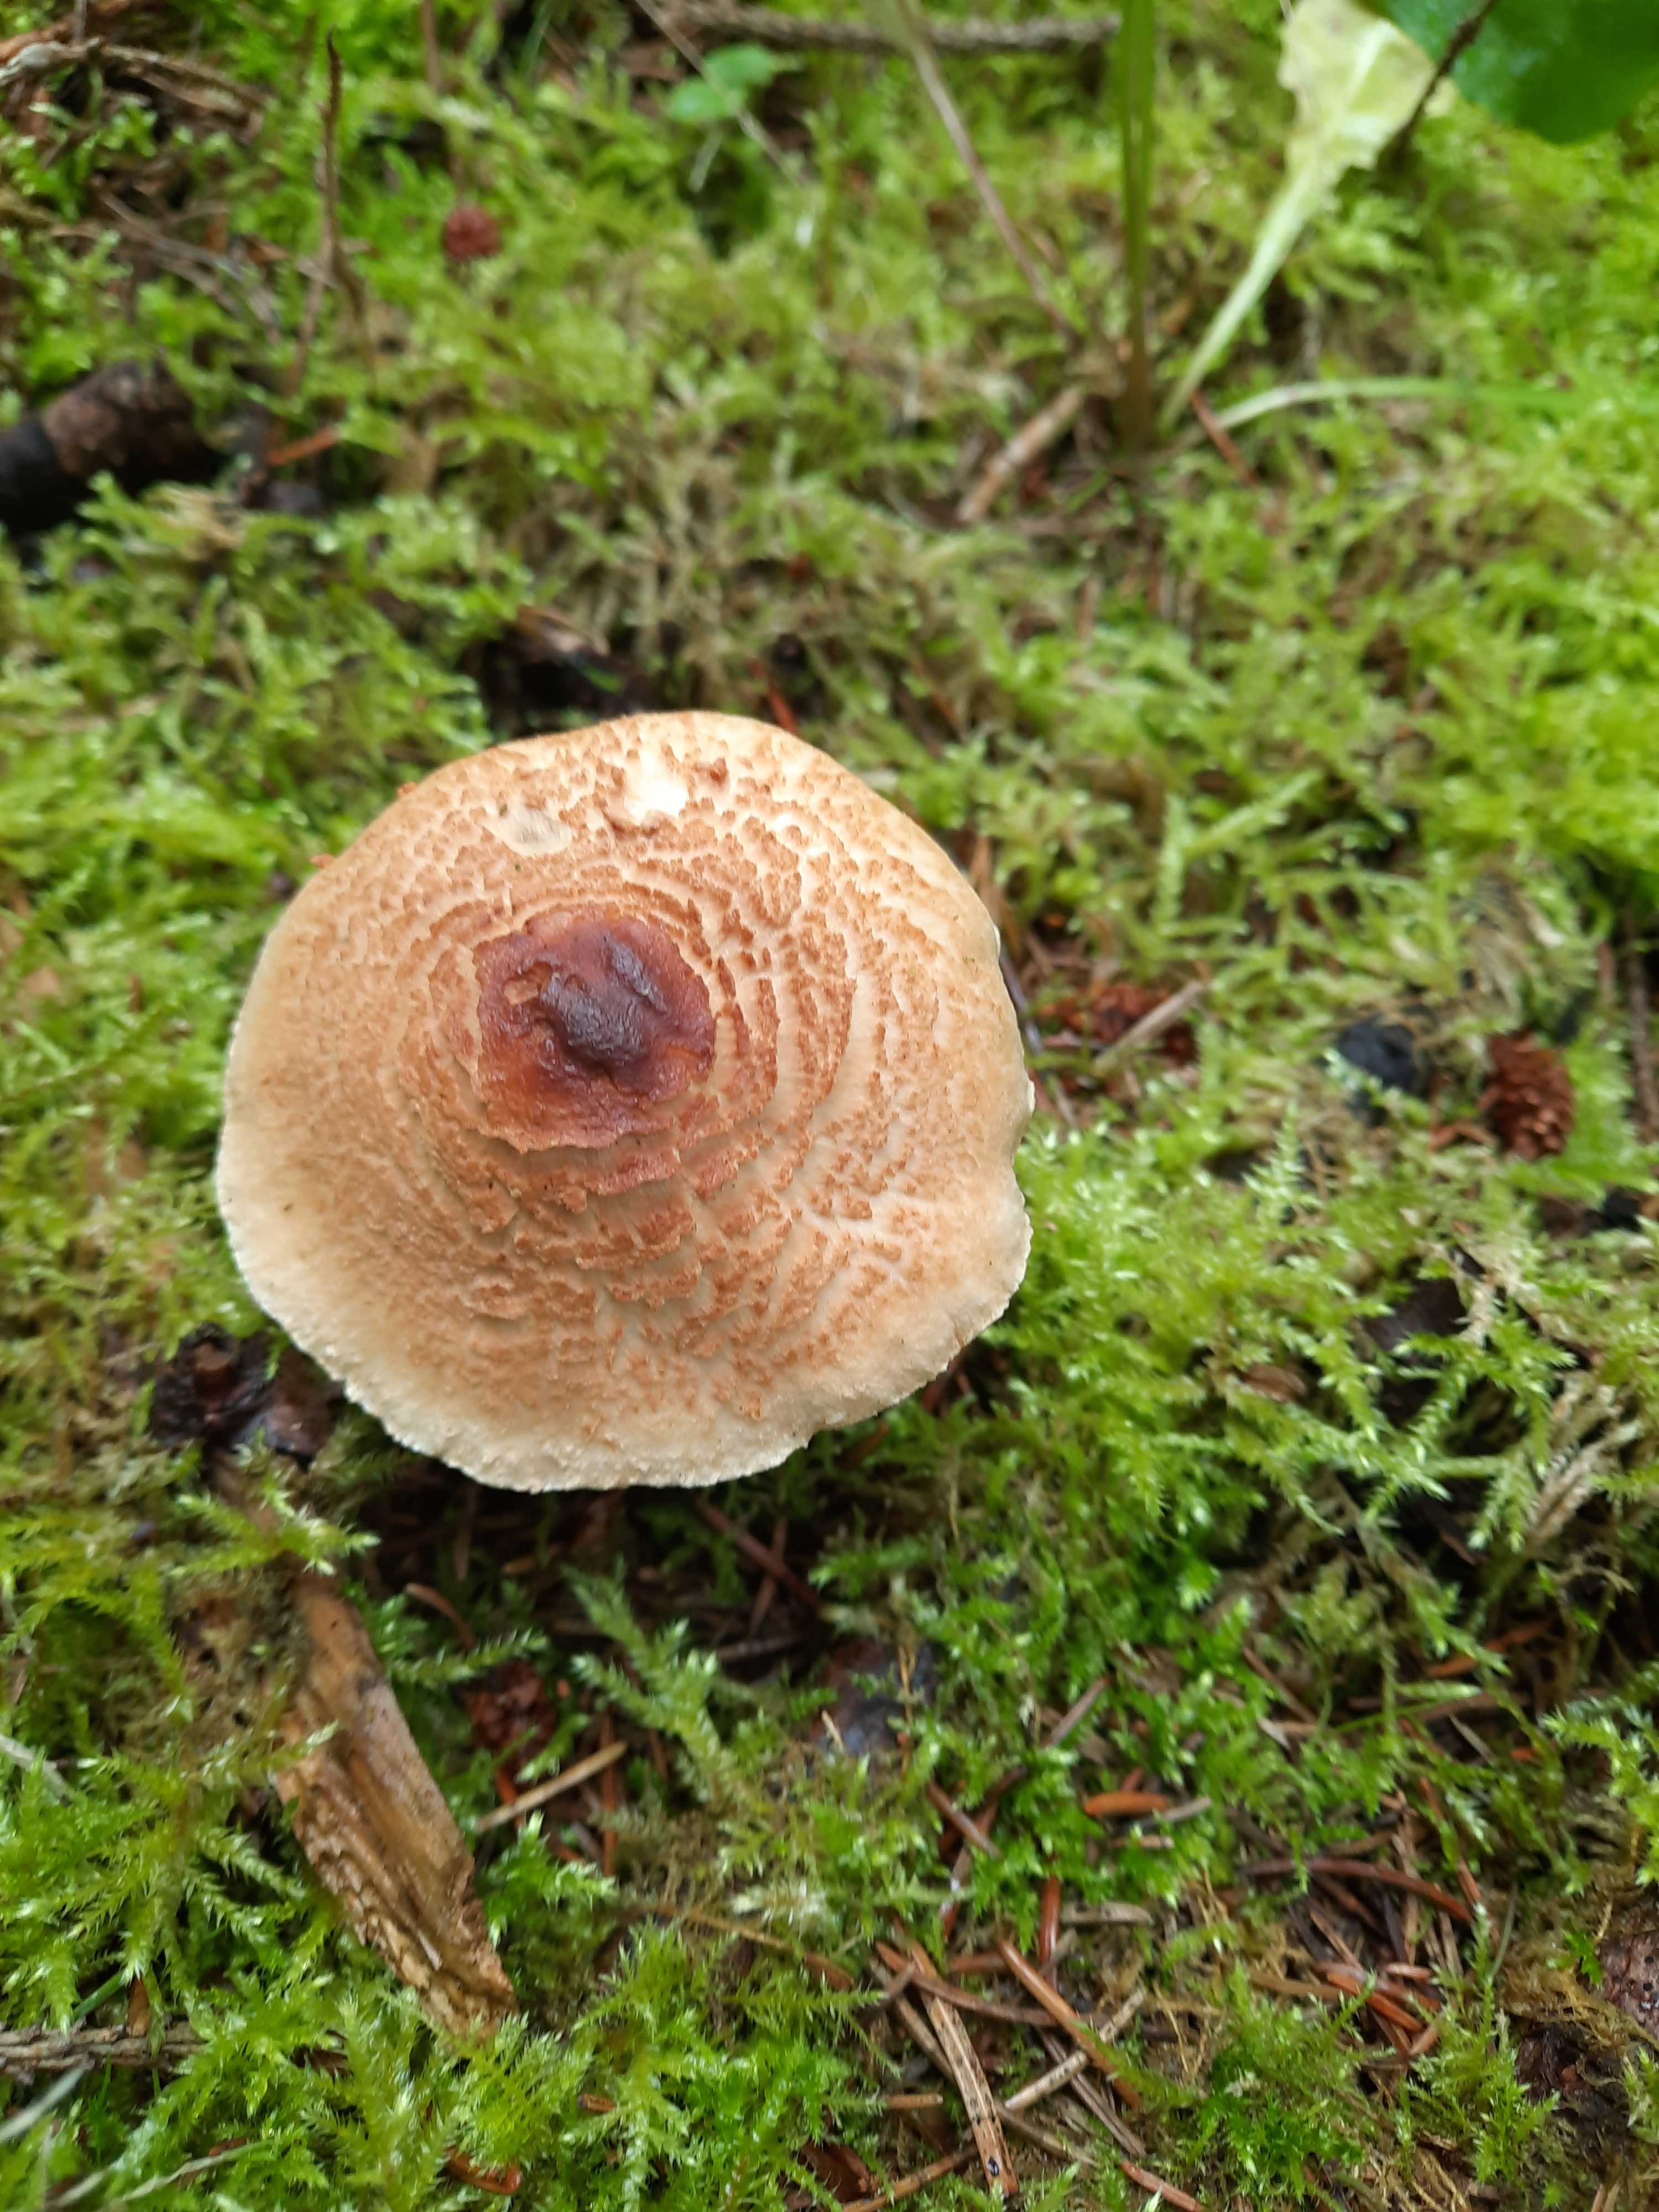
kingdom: Fungi
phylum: Basidiomycota
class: Agaricomycetes
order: Agaricales
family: Agaricaceae
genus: Lepiota
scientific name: Lepiota magnispora
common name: gulfnugget parasolhat
